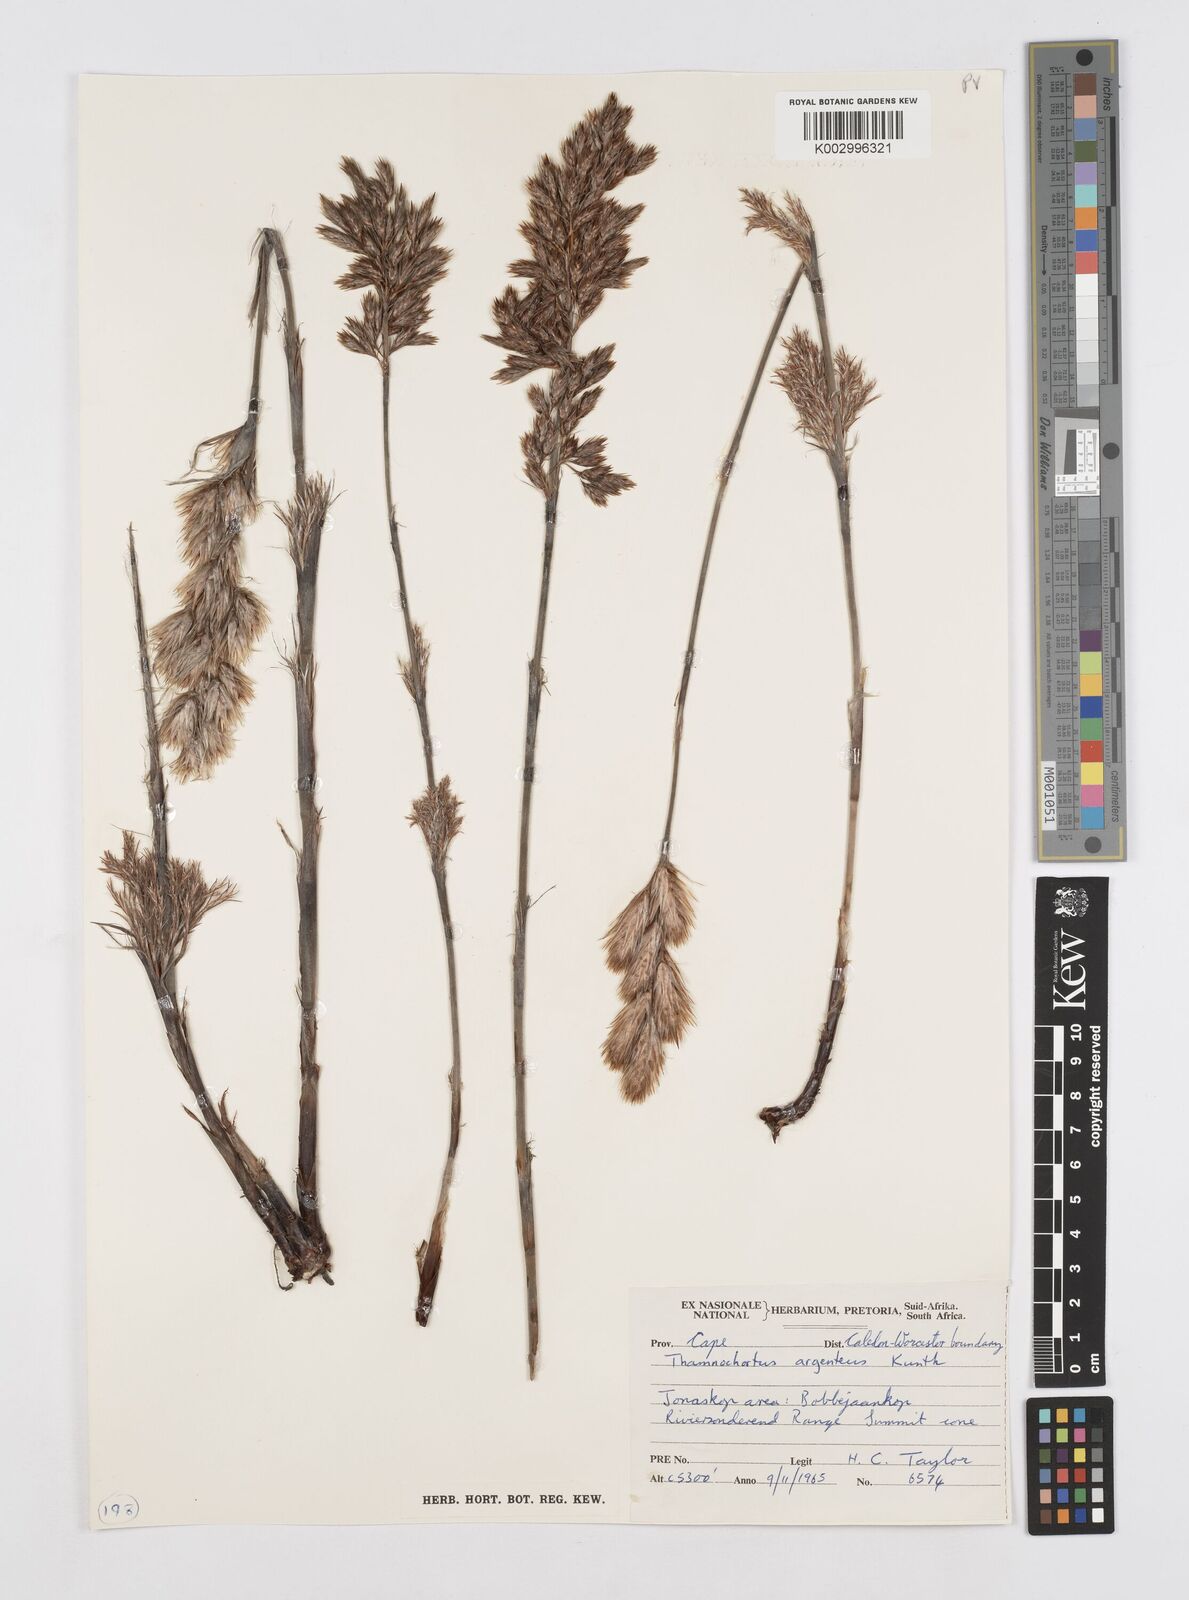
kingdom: Plantae
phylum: Tracheophyta
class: Liliopsida
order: Poales
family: Restionaceae
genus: Hypodiscus
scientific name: Hypodiscus argenteus
